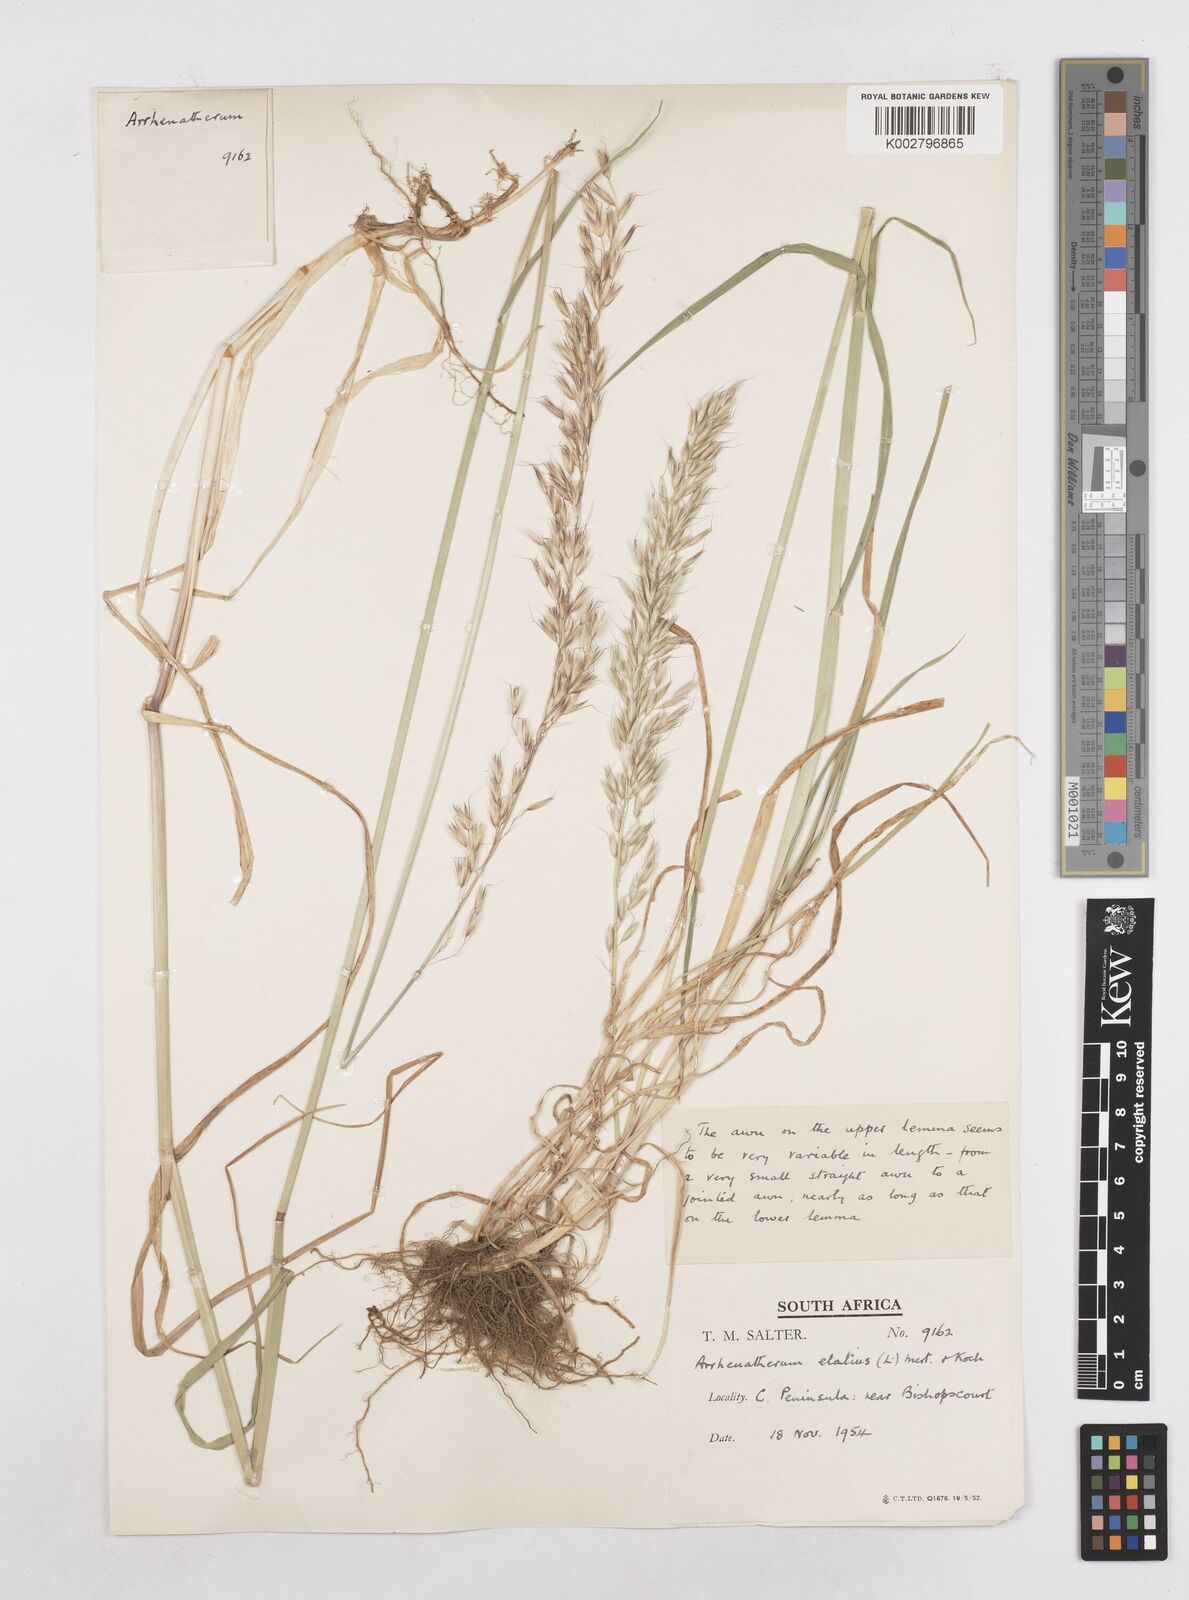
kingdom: Plantae
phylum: Tracheophyta
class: Liliopsida
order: Poales
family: Poaceae
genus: Arrhenatherum
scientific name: Arrhenatherum elatius
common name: Tall oatgrass
